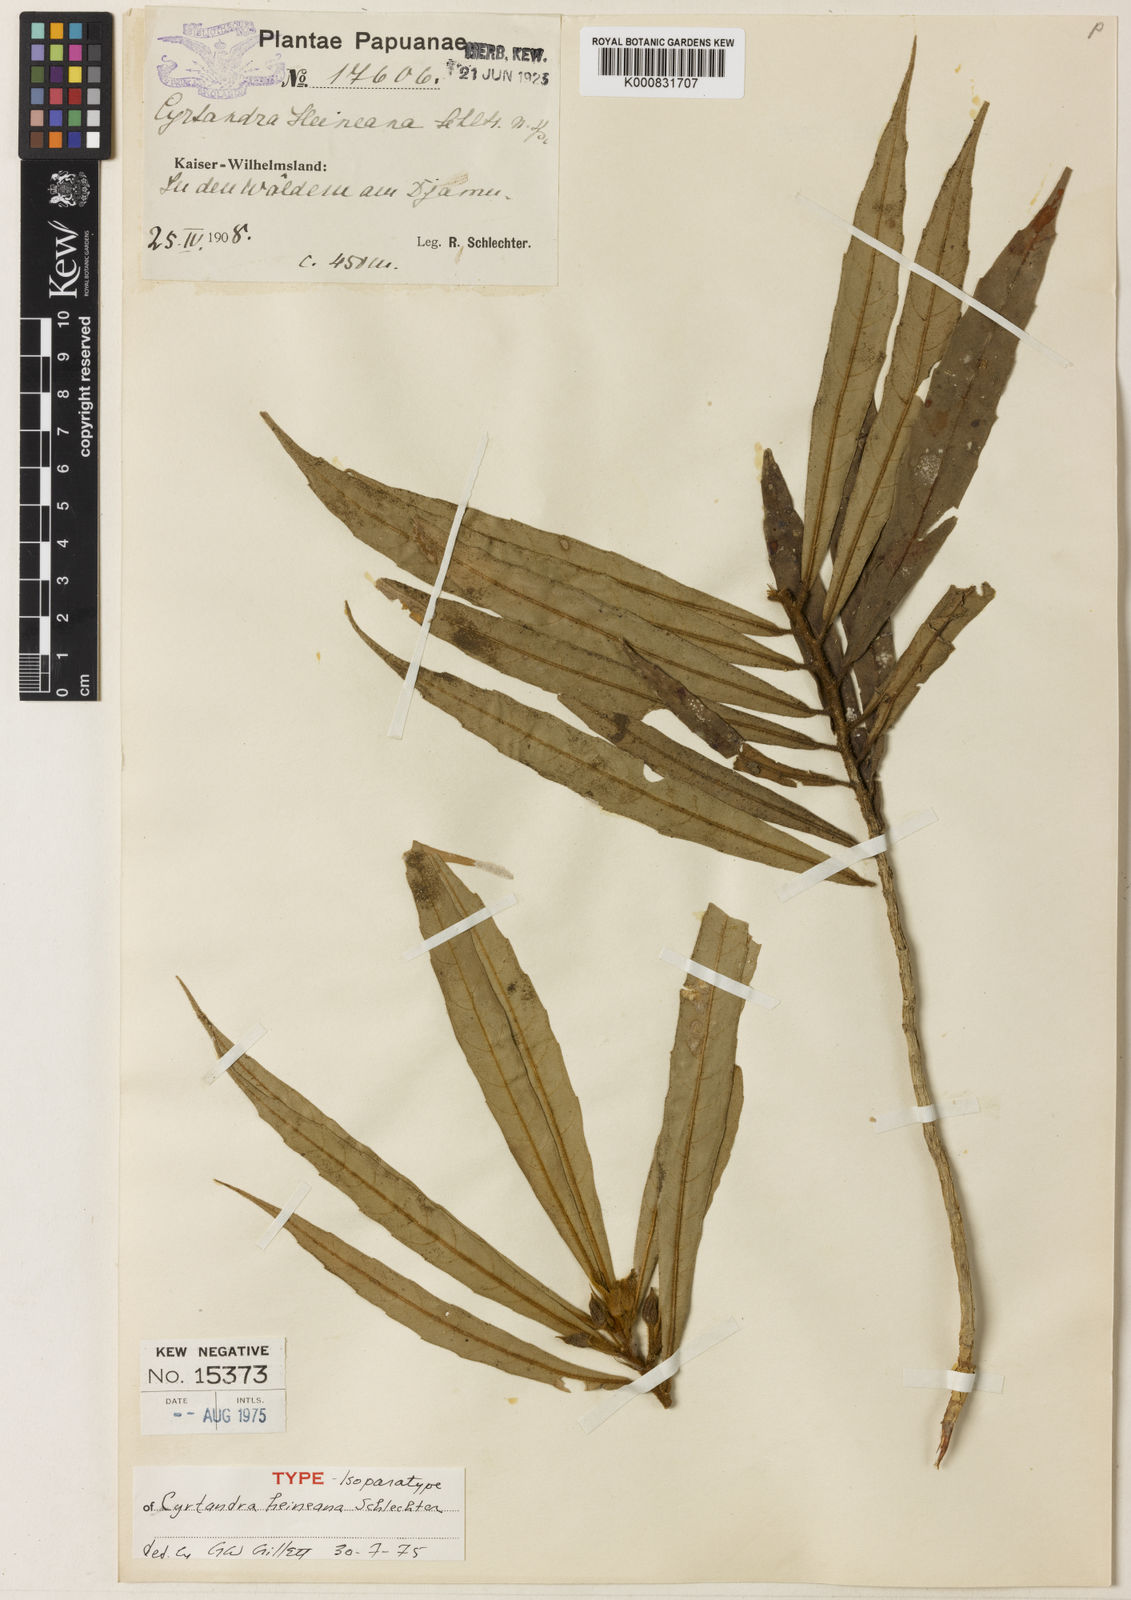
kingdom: Plantae
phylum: Tracheophyta
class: Magnoliopsida
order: Lamiales
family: Gesneriaceae
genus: Cyrtandra
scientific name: Cyrtandra heineana
